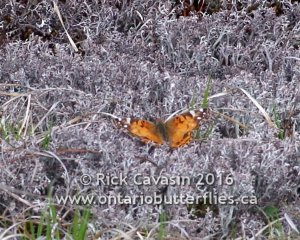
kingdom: Animalia
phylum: Arthropoda
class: Insecta
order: Lepidoptera
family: Nymphalidae
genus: Vanessa
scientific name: Vanessa virginiensis
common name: American Lady
